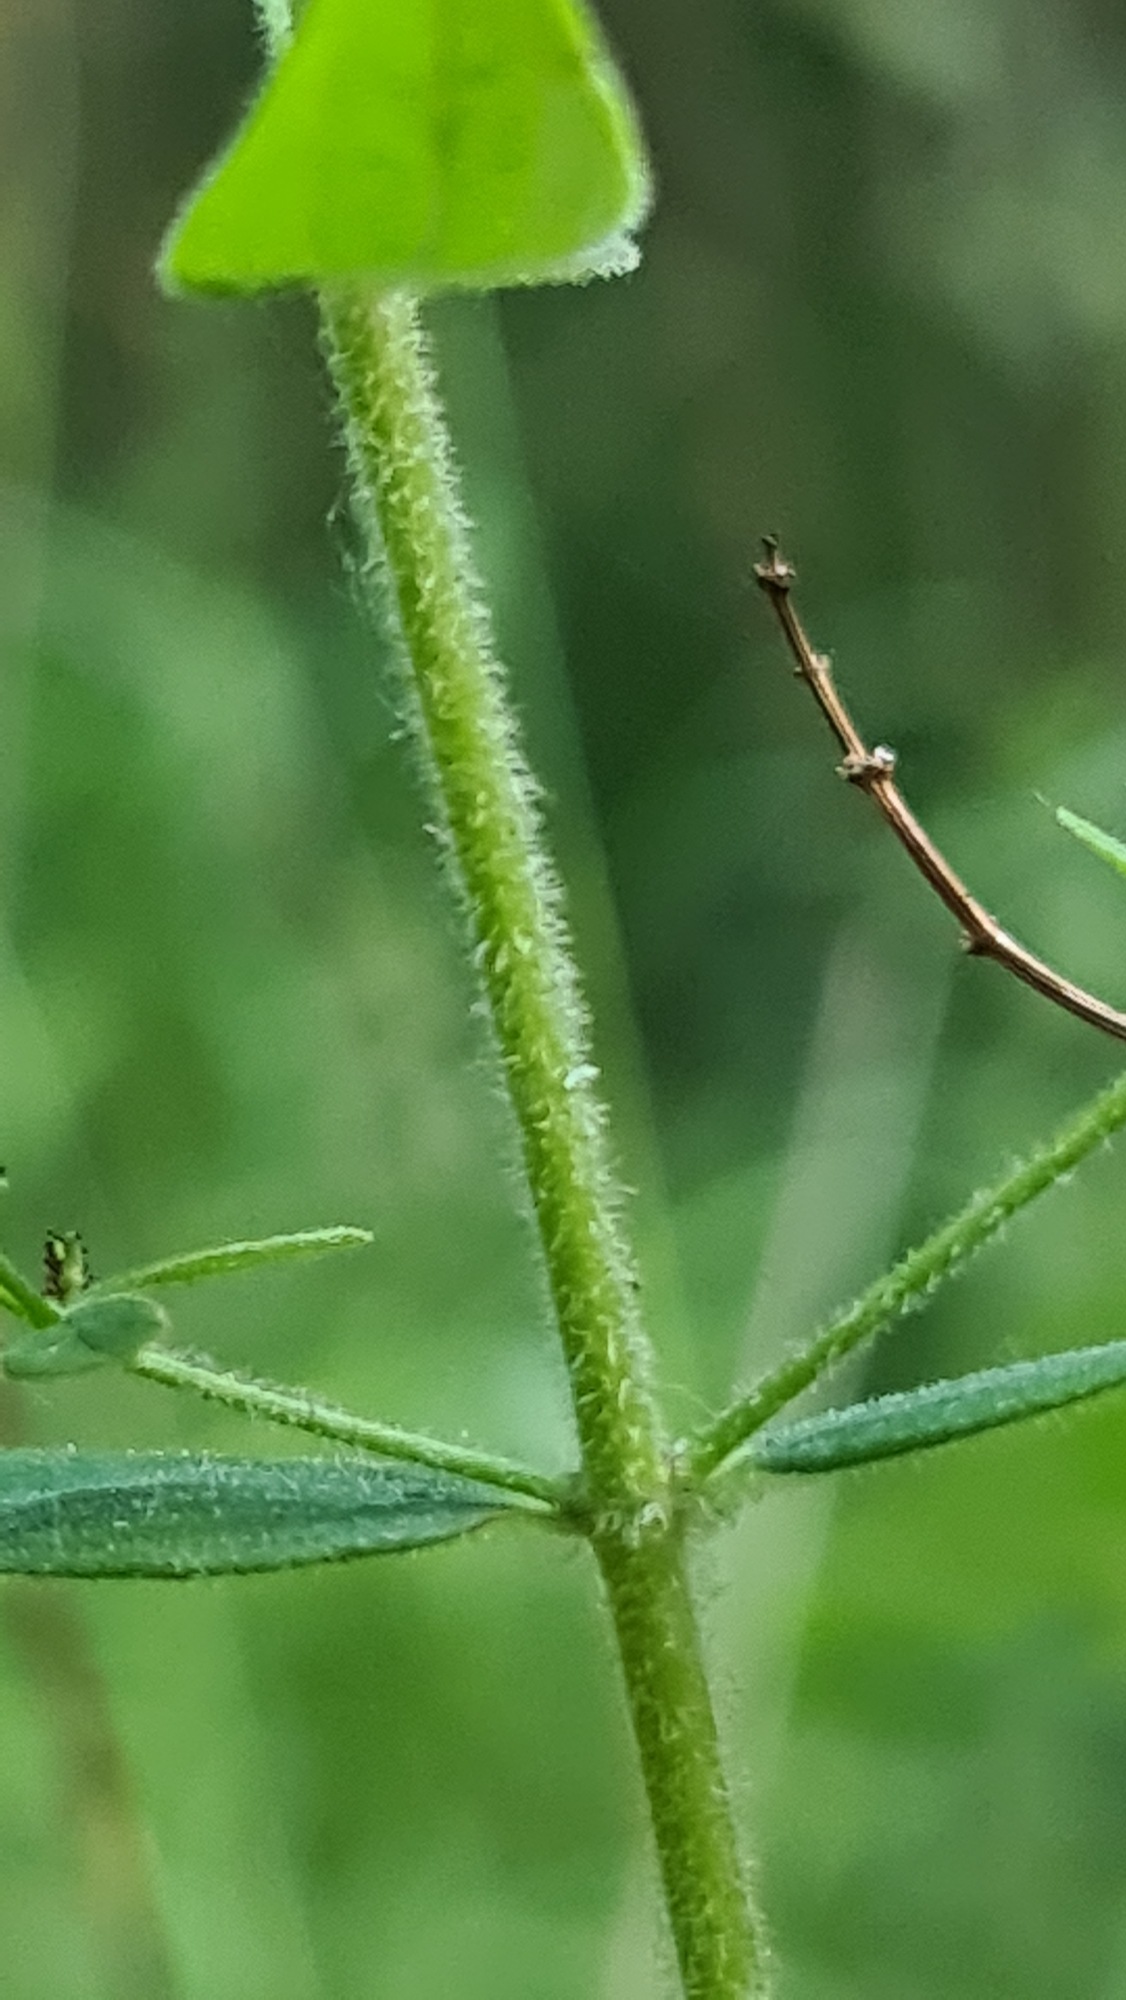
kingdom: Plantae
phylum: Tracheophyta
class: Magnoliopsida
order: Malpighiales
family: Hypericaceae
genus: Hypericum
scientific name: Hypericum hirsutum
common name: Lådden perikon
